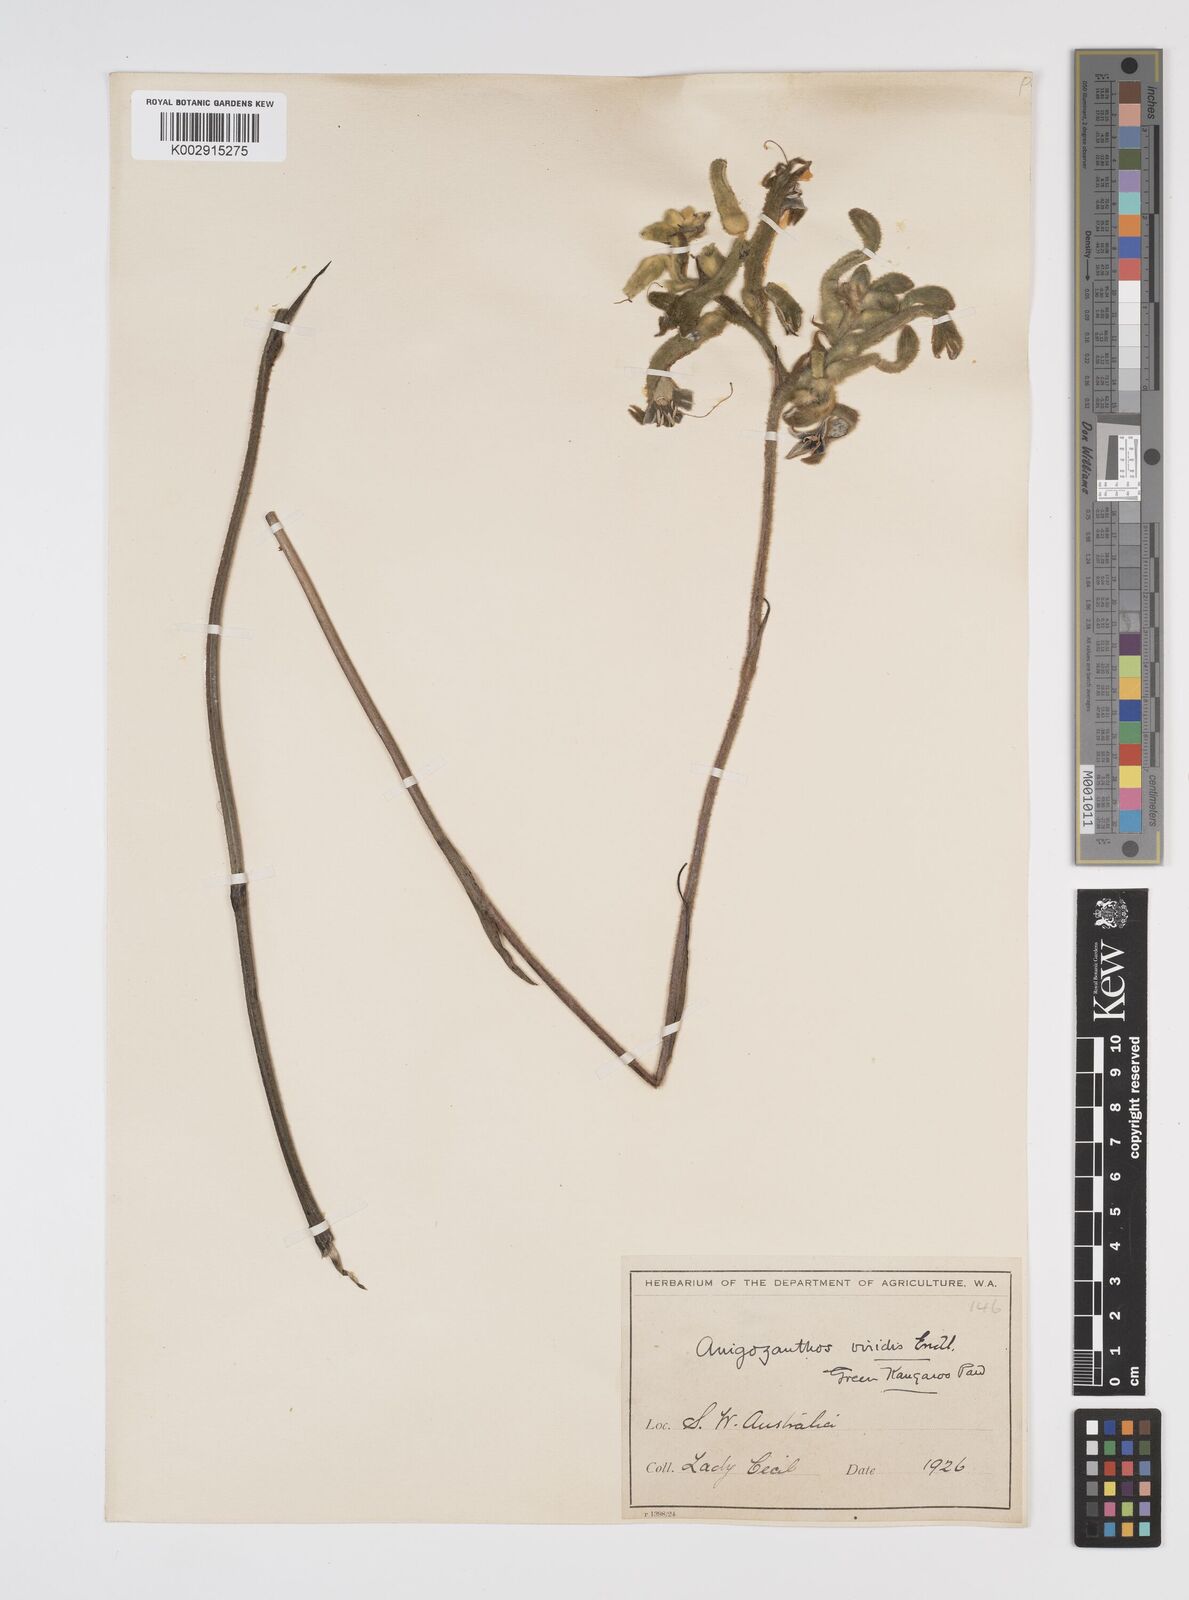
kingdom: Plantae
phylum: Tracheophyta
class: Liliopsida
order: Commelinales
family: Haemodoraceae
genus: Anigozanthos
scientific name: Anigozanthos viridis
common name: Green kangaroo-paw
